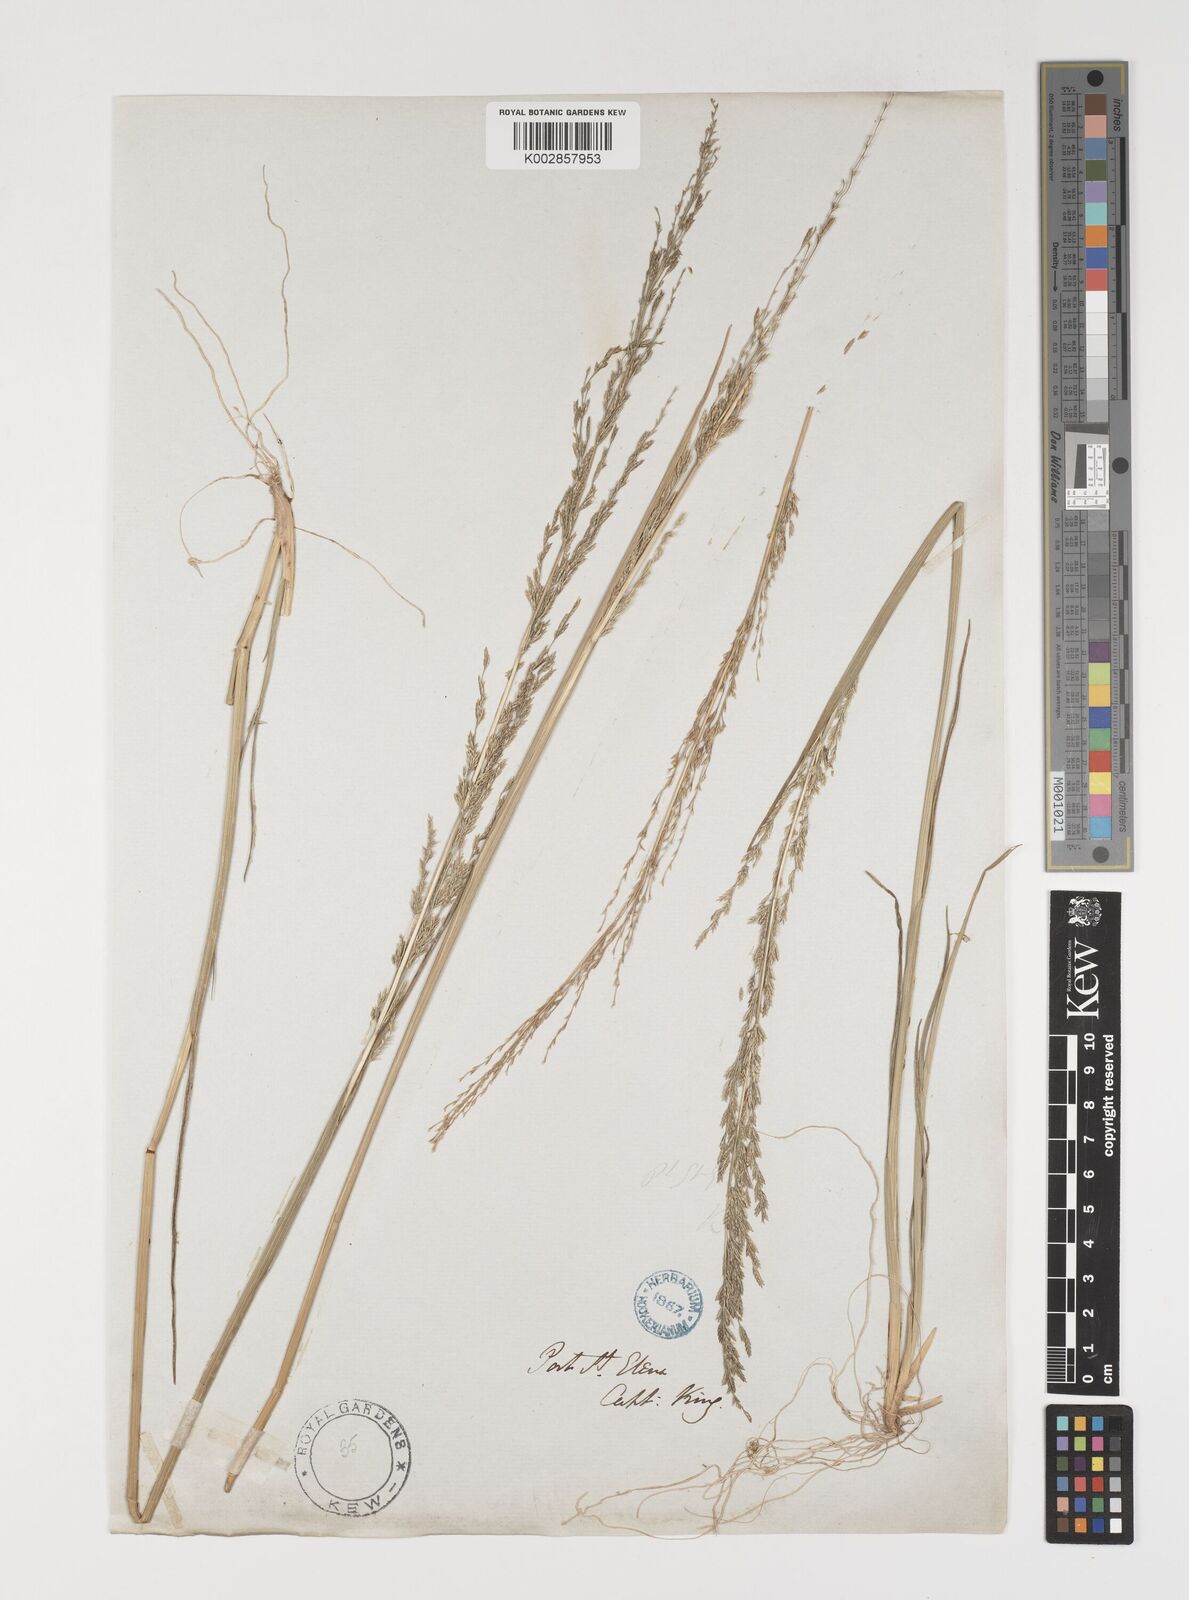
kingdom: Plantae
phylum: Tracheophyta
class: Liliopsida
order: Poales
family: Poaceae
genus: Puccinellia
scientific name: Puccinellia glaucescens
